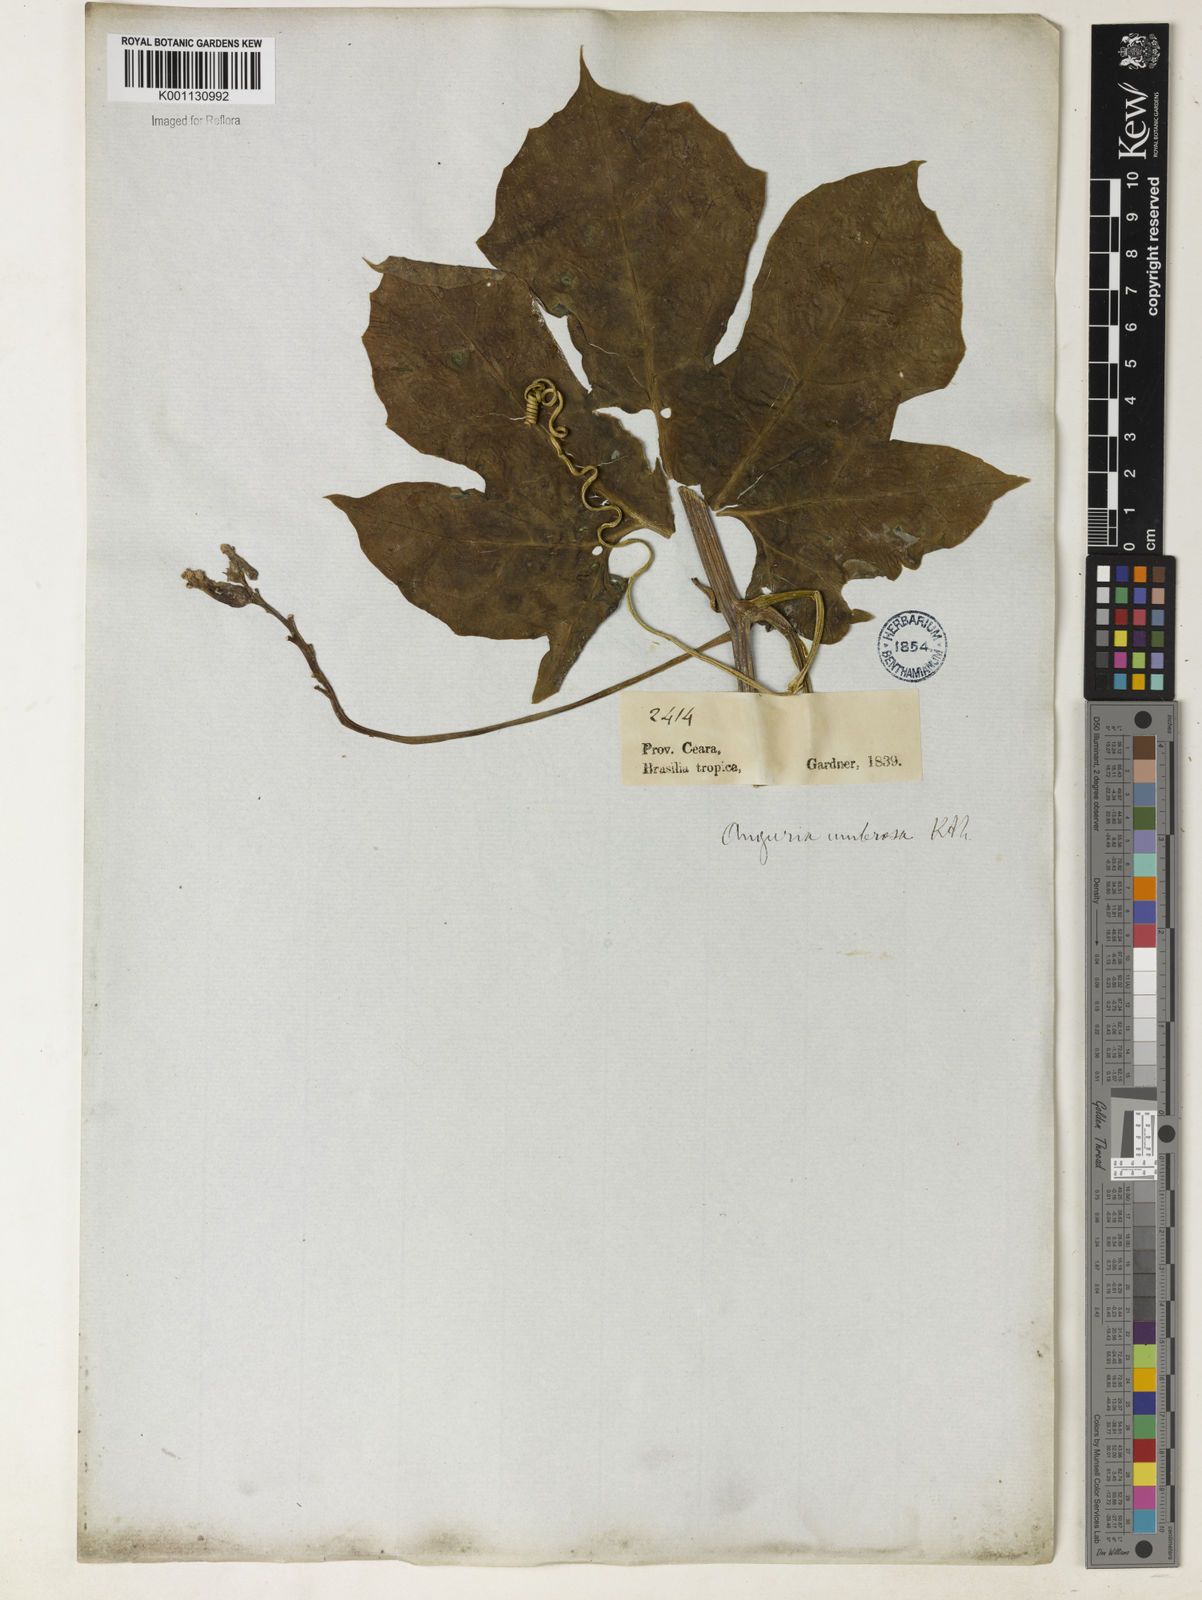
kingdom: Plantae
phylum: Tracheophyta
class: Magnoliopsida
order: Cucurbitales
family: Cucurbitaceae
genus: Psiguria
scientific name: Psiguria umbrosa
